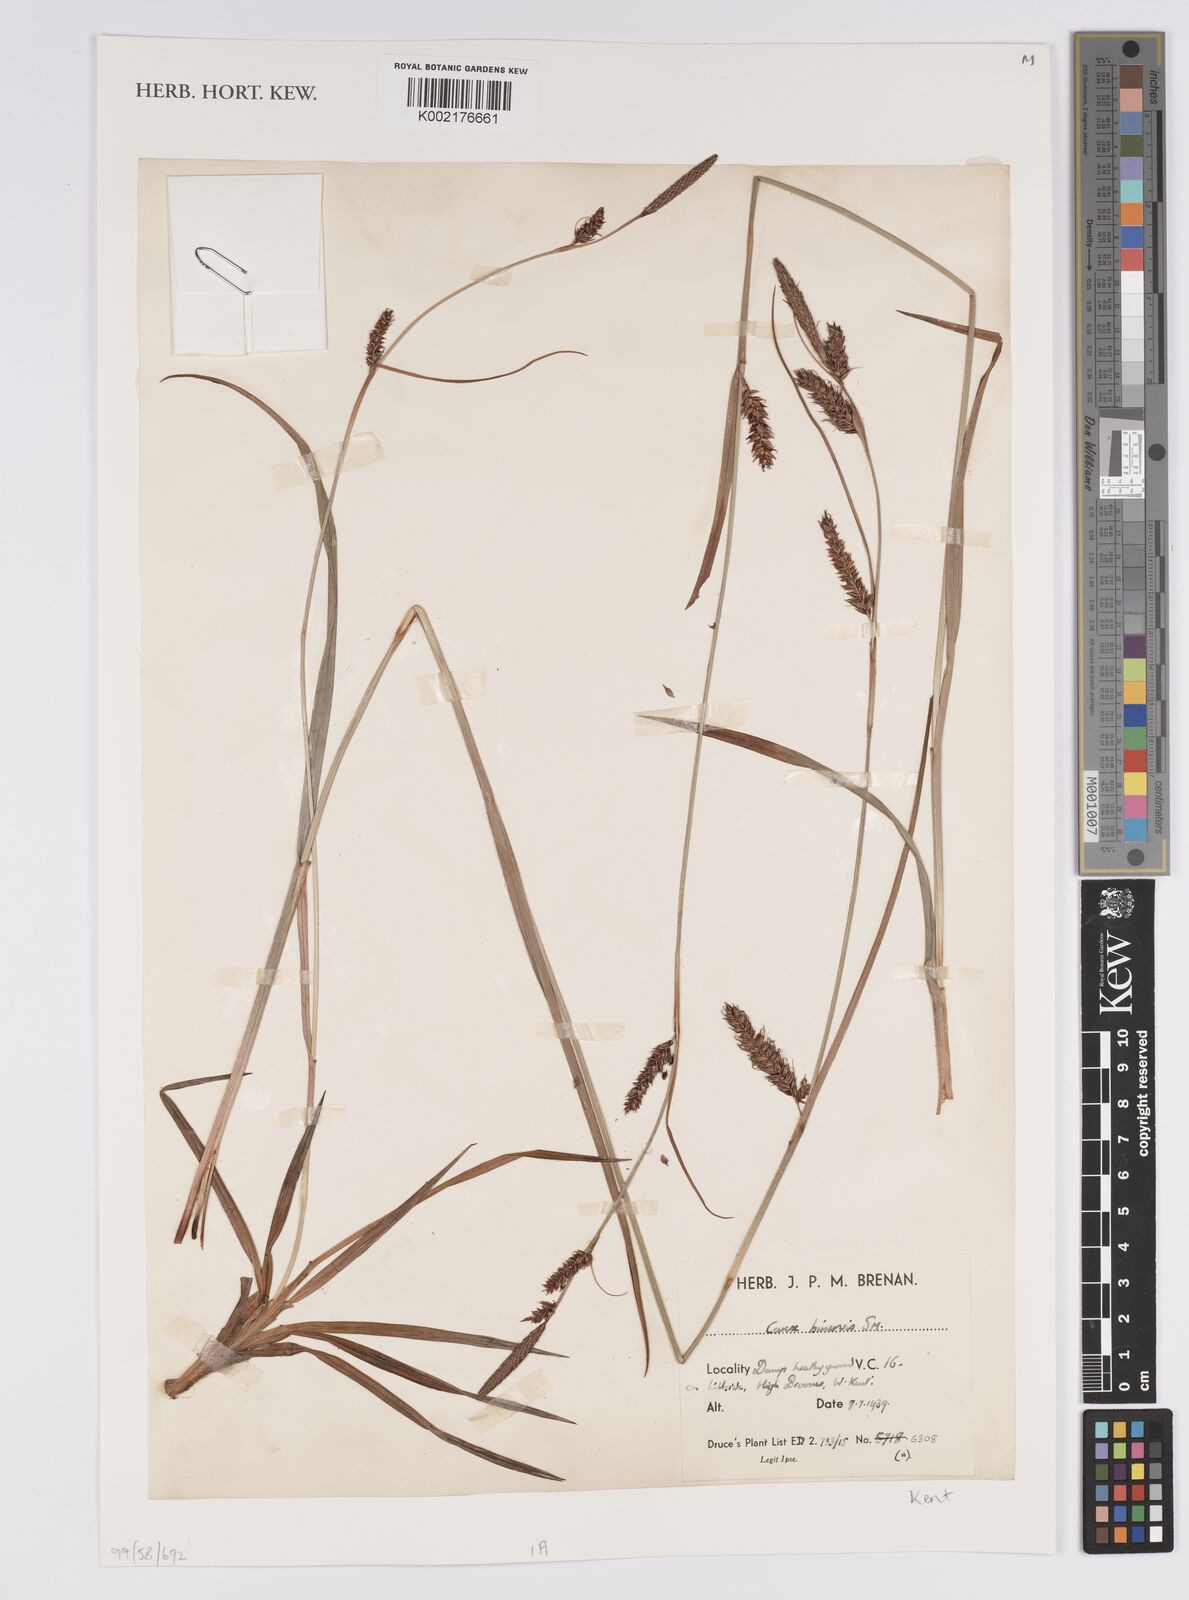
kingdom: Plantae
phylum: Tracheophyta
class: Liliopsida
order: Poales
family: Cyperaceae
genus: Carex
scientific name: Carex binervis
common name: Green-ribbed sedge
